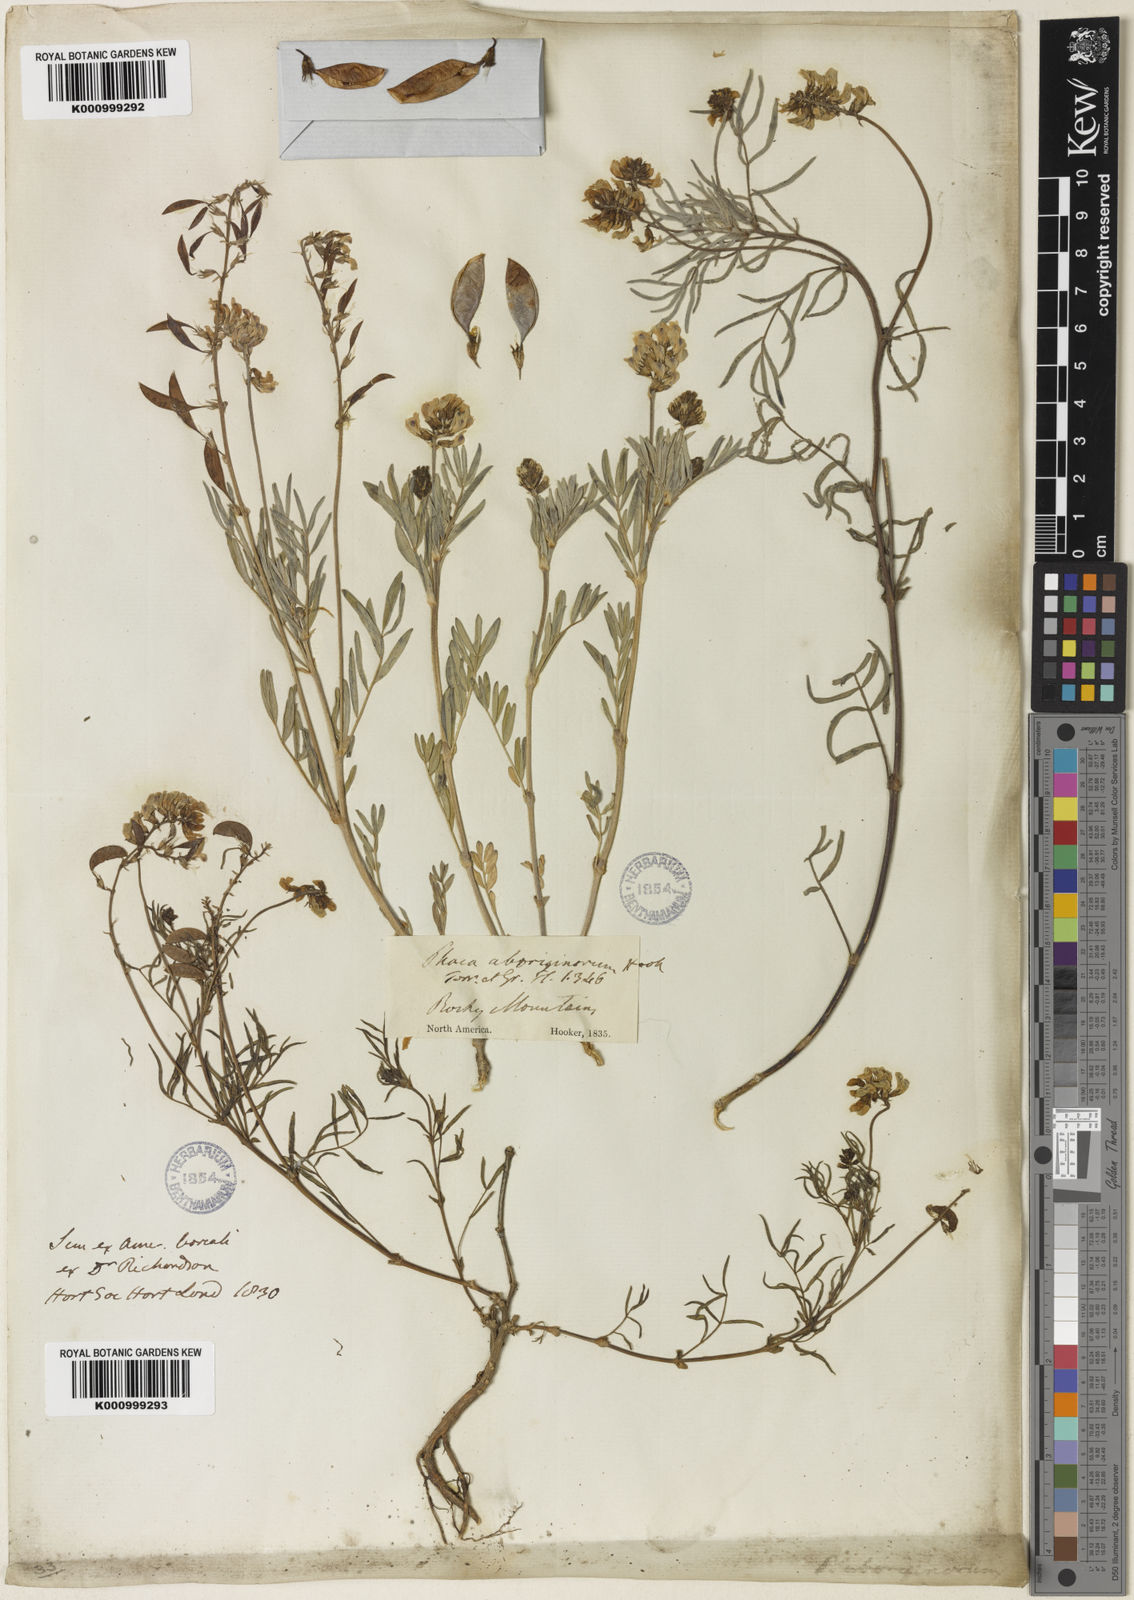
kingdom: Plantae
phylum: Tracheophyta
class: Magnoliopsida
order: Fabales
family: Fabaceae
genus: Astragalus
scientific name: Astragalus aboriginorum
